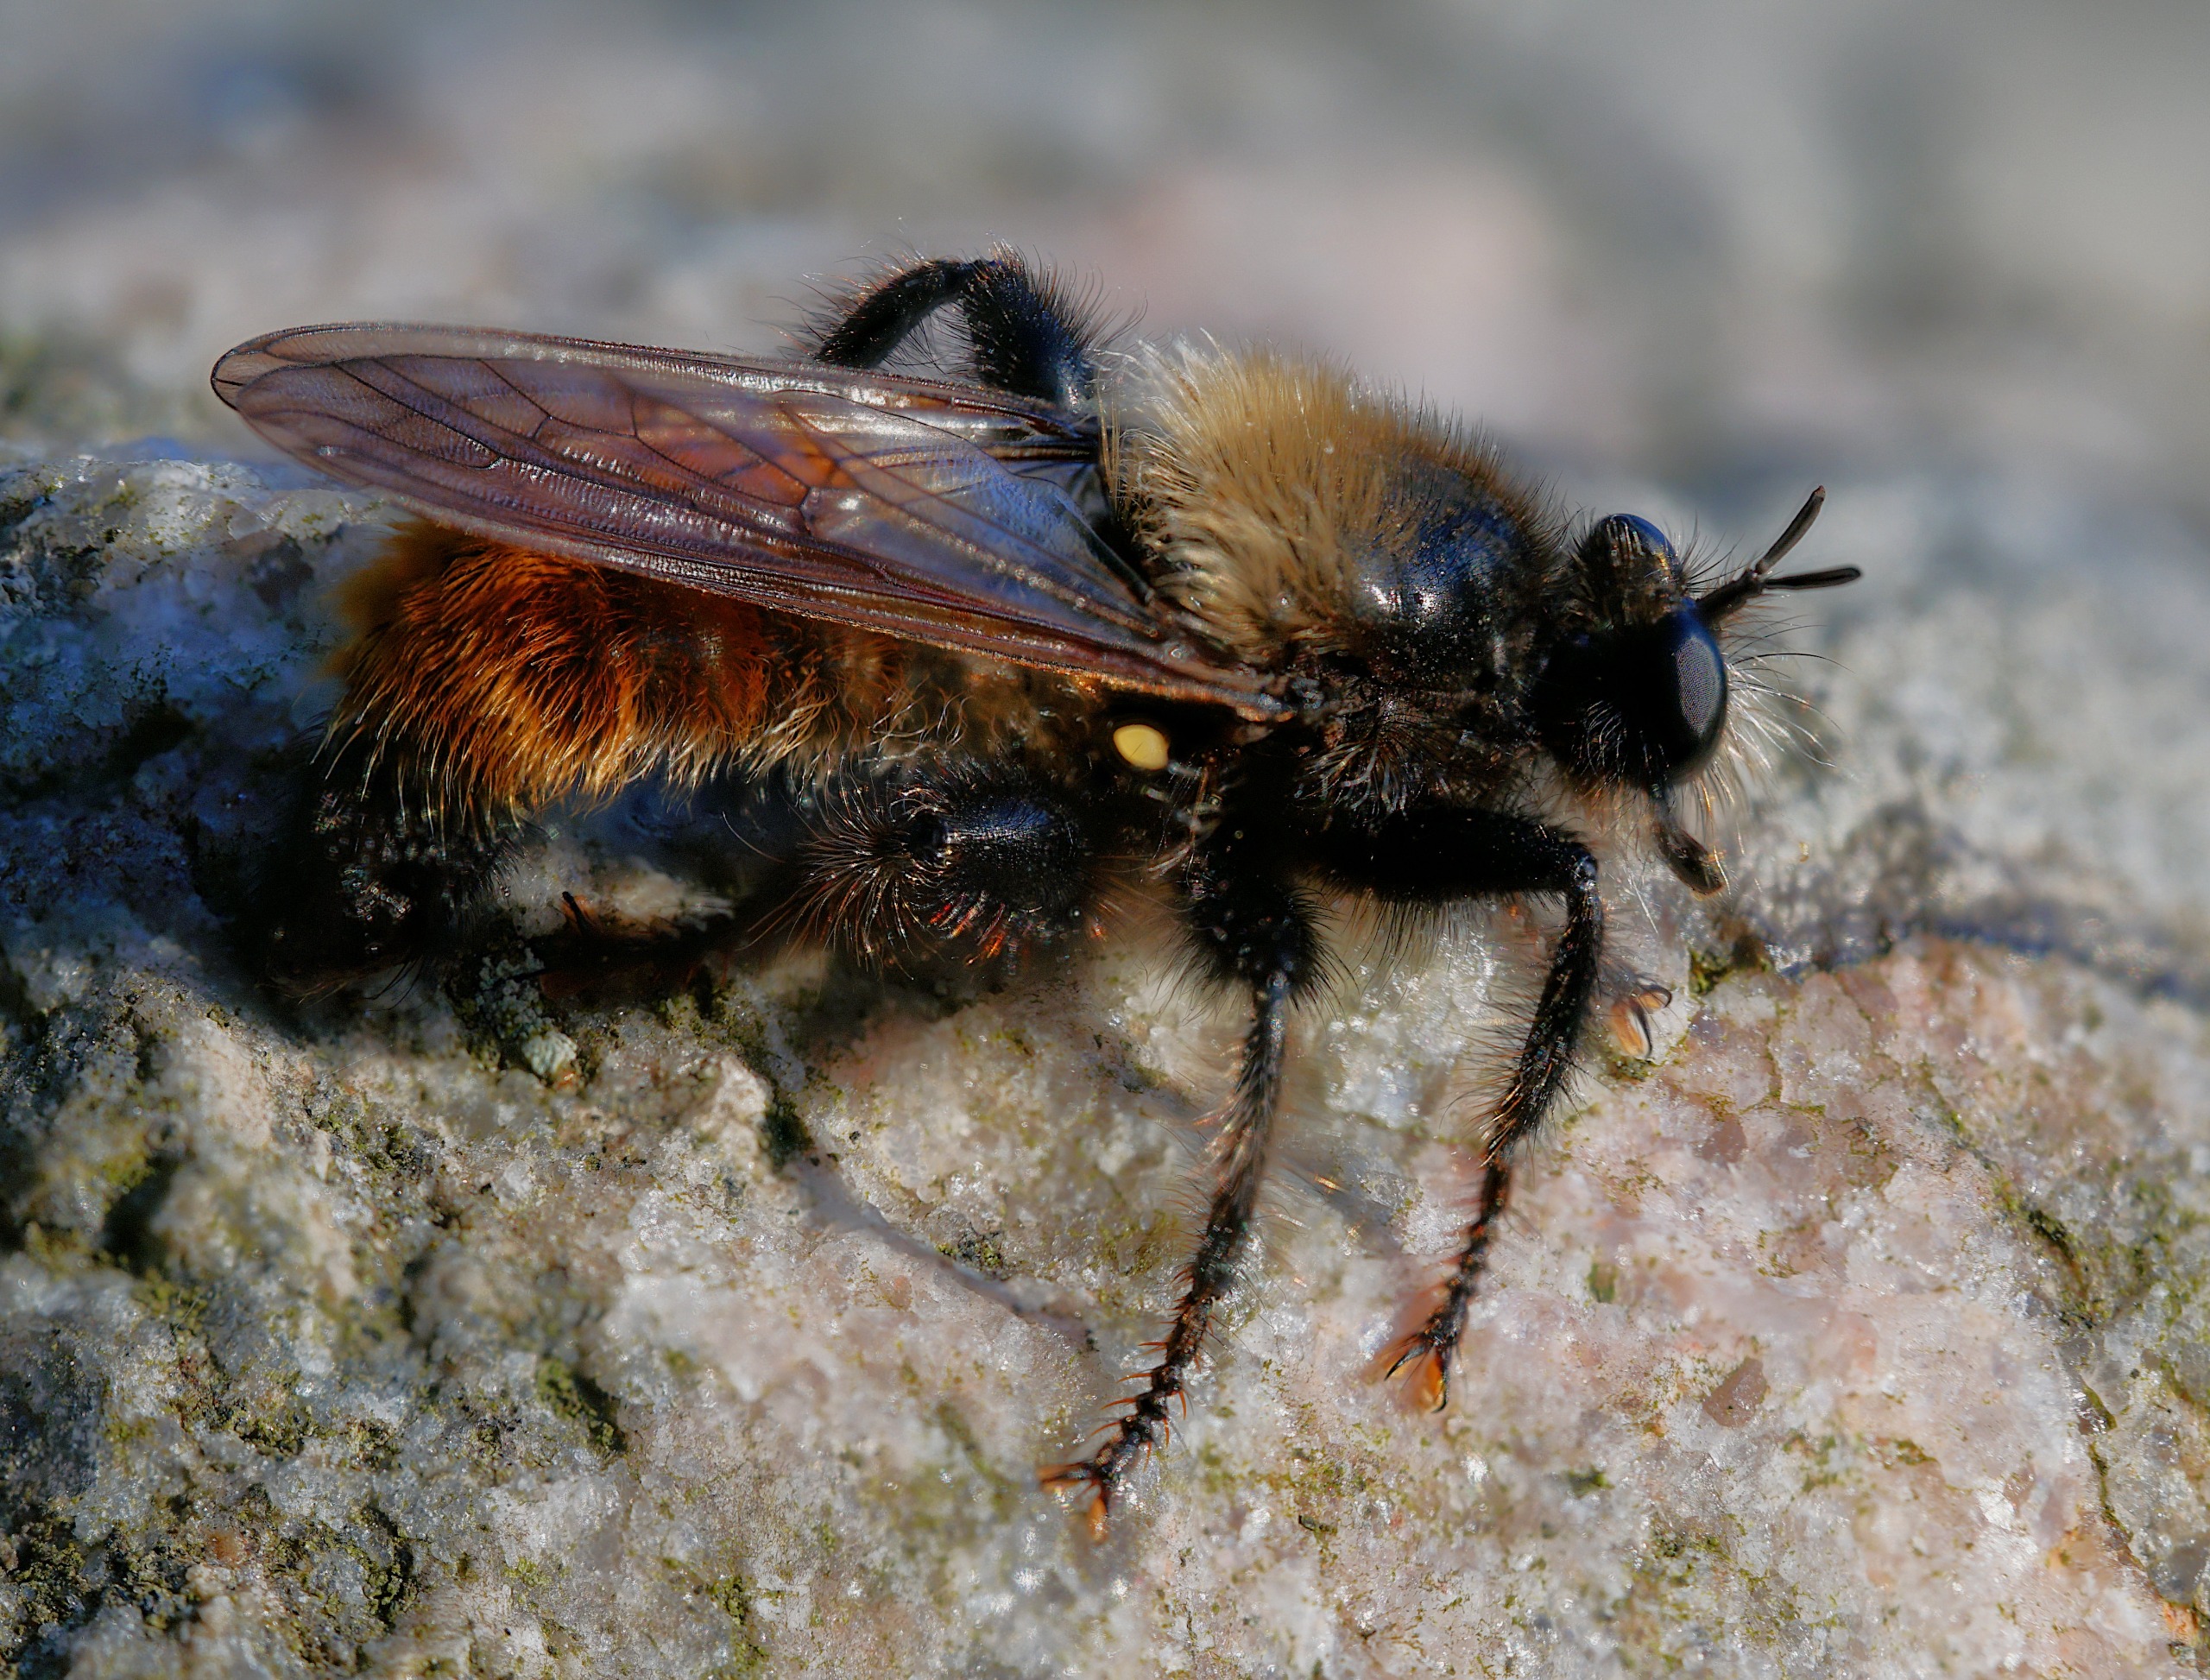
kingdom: Animalia
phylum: Arthropoda
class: Insecta
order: Diptera
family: Asilidae
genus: Laphria
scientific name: Laphria flava
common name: Gul vedrovflue
